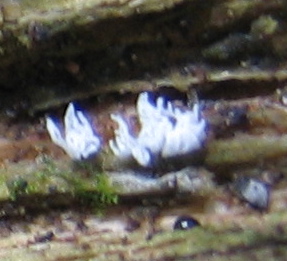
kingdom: Protozoa
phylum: Mycetozoa
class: Protosteliomycetes
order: Ceratiomyxales
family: Ceratiomyxaceae
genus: Ceratiomyxa
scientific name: Ceratiomyxa fruticulosa
